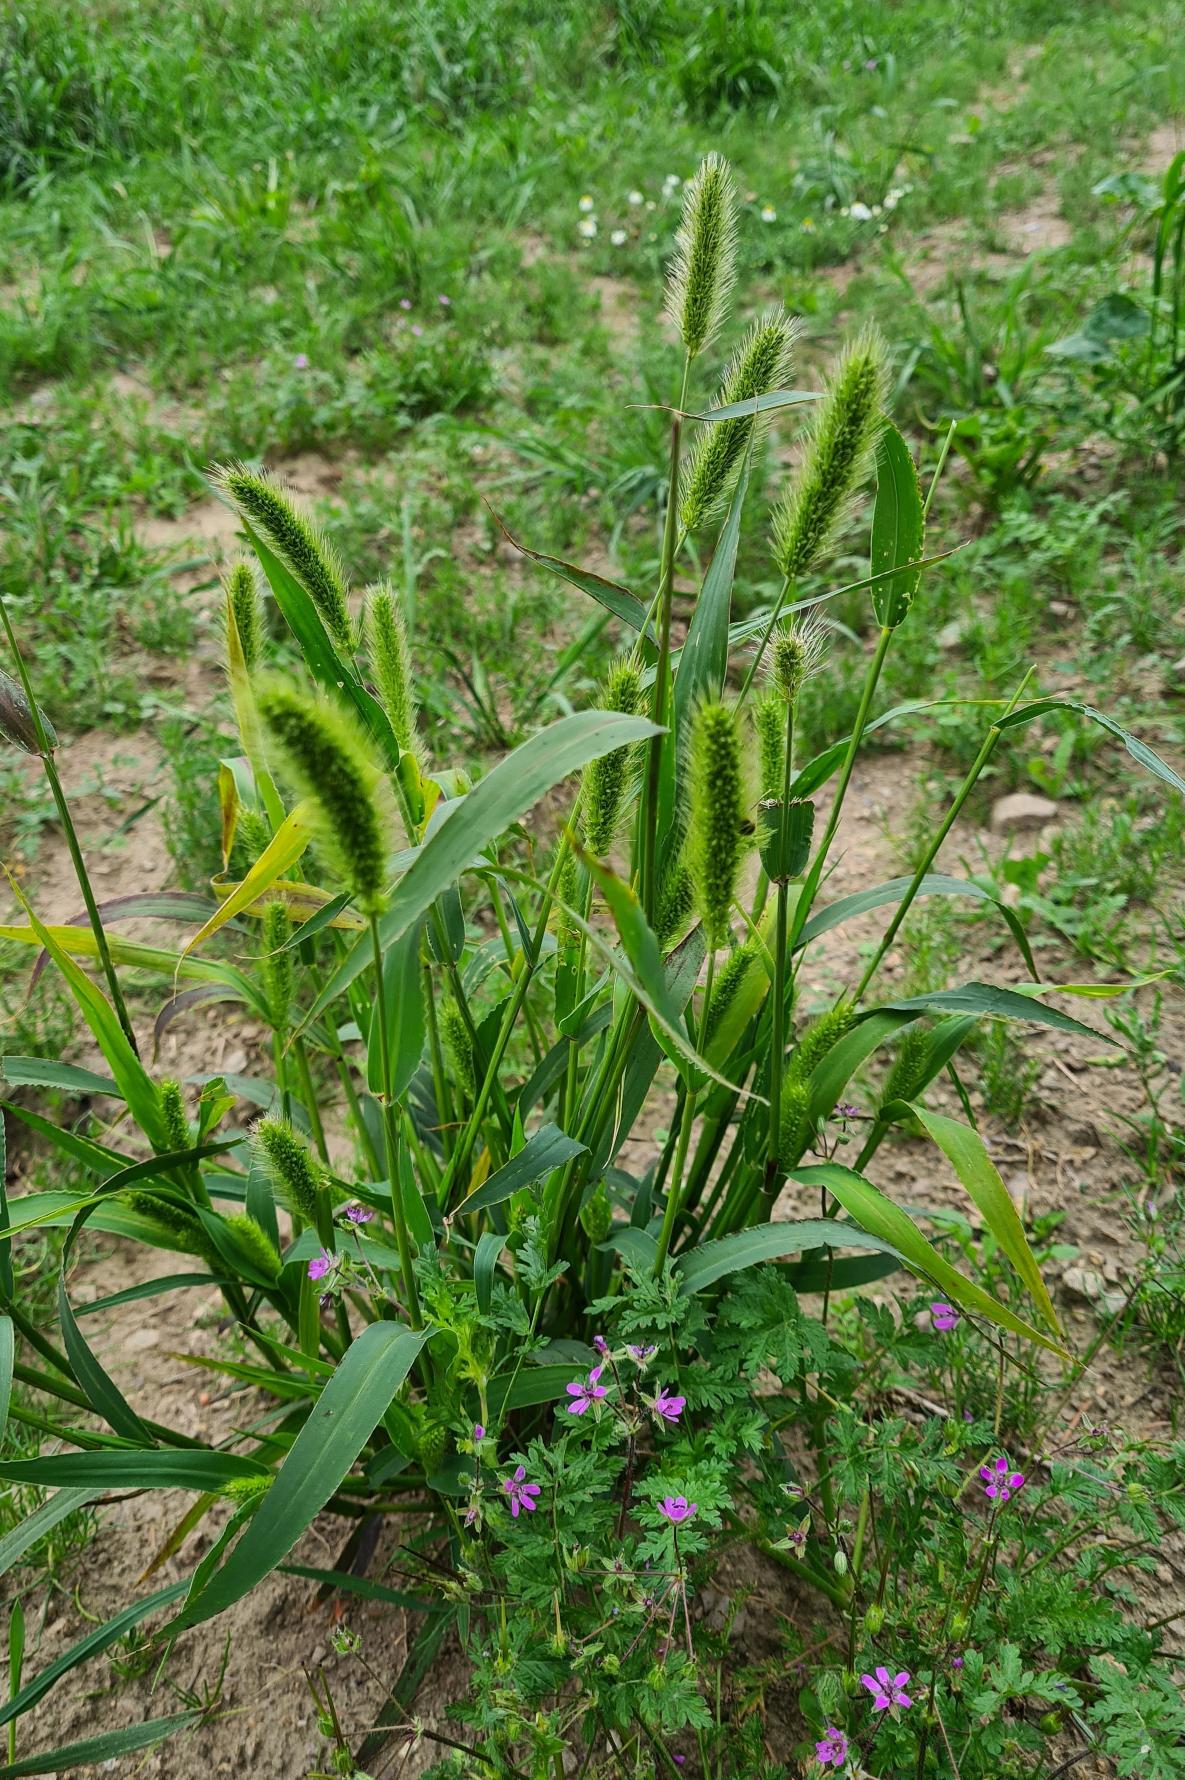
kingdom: Plantae
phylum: Tracheophyta
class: Liliopsida
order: Poales
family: Poaceae
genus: Setaria
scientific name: Setaria viridis
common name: Grøn skærmaks
